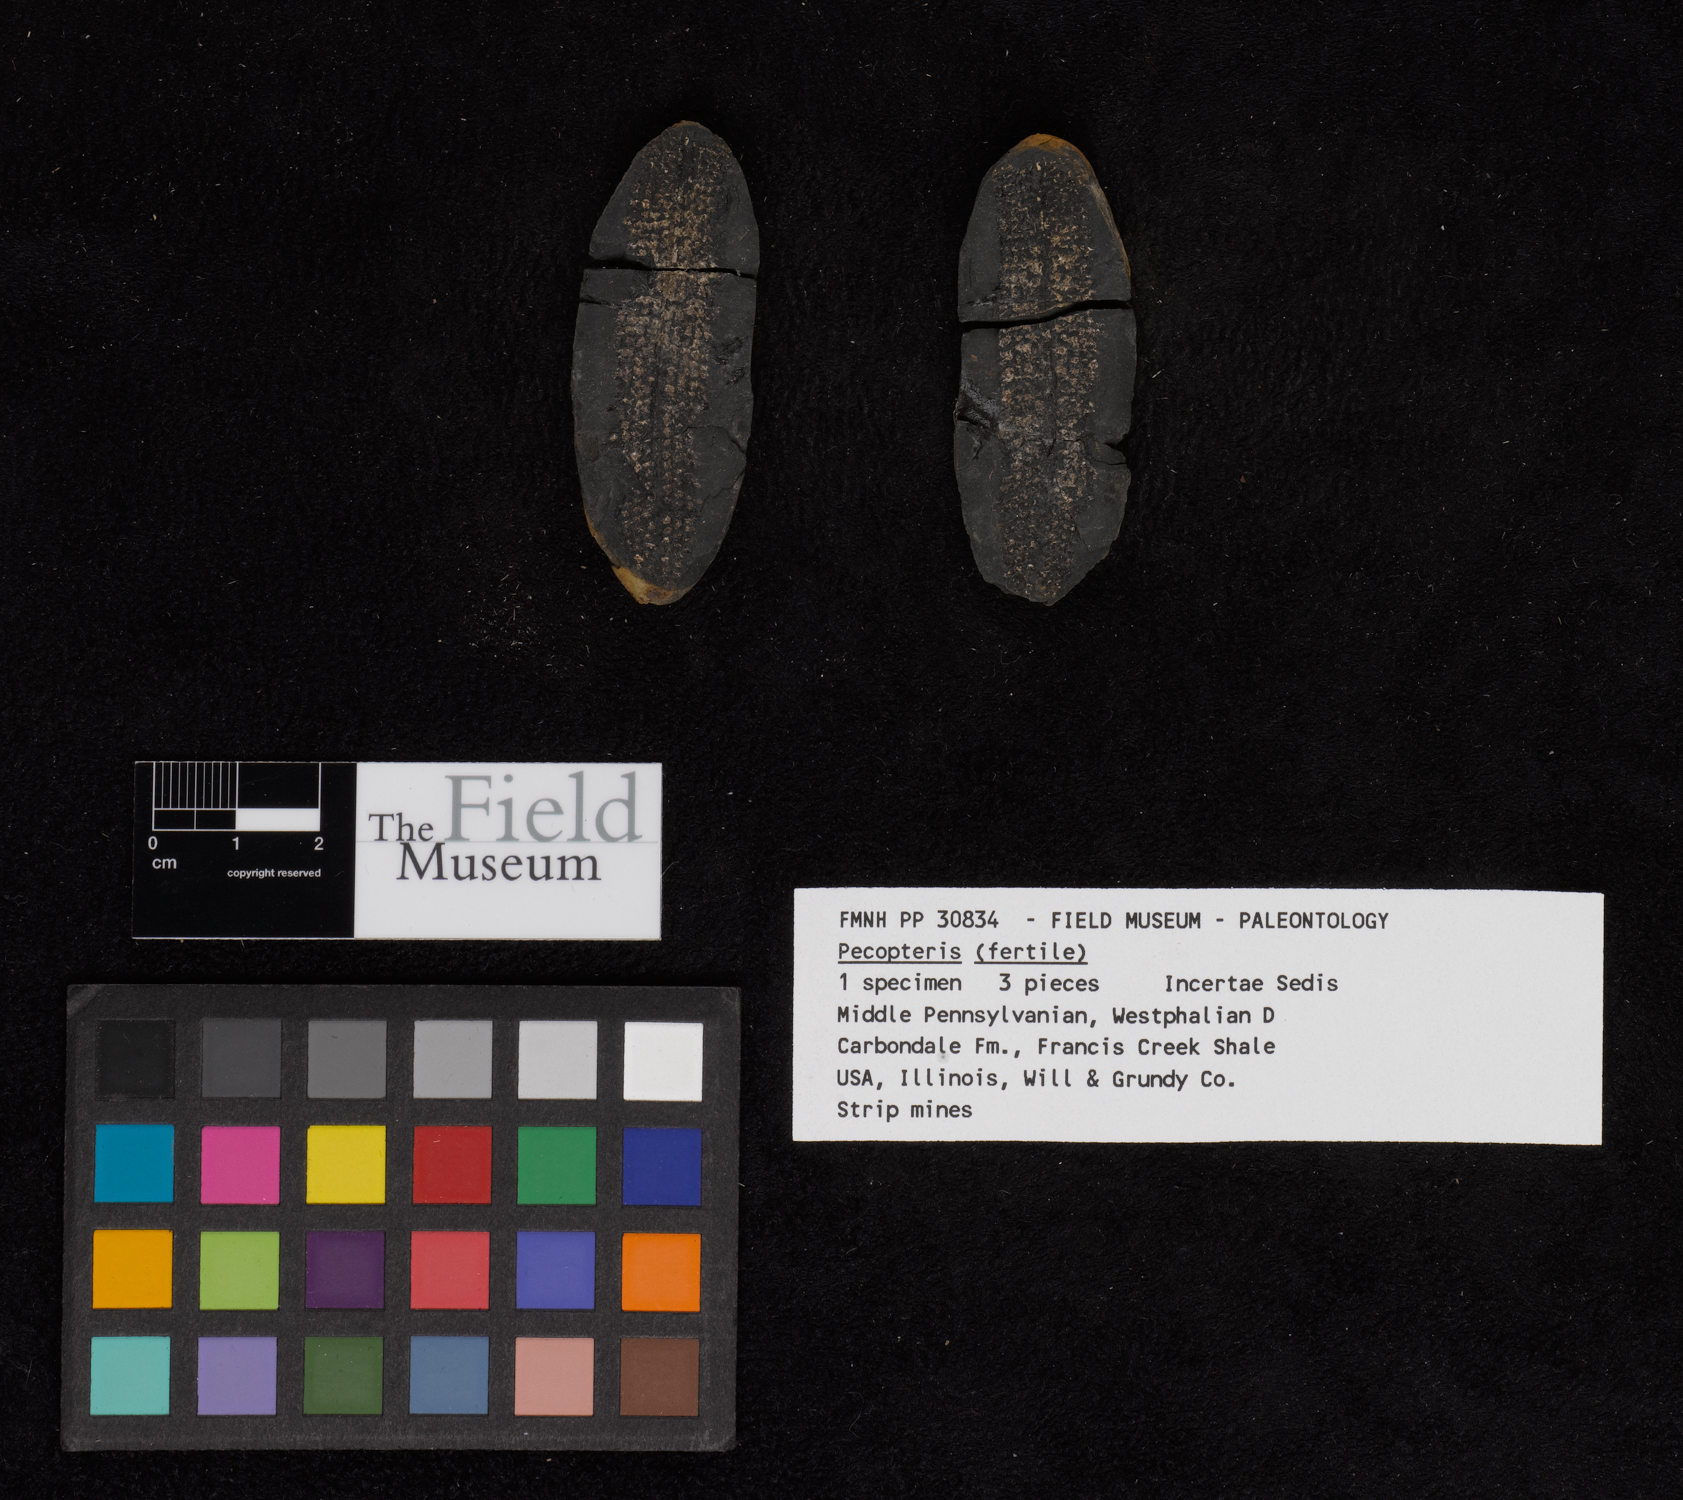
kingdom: Plantae
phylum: Tracheophyta
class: Polypodiopsida
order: Marattiales
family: Asterothecaceae
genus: Pecopteris
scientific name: Pecopteris
